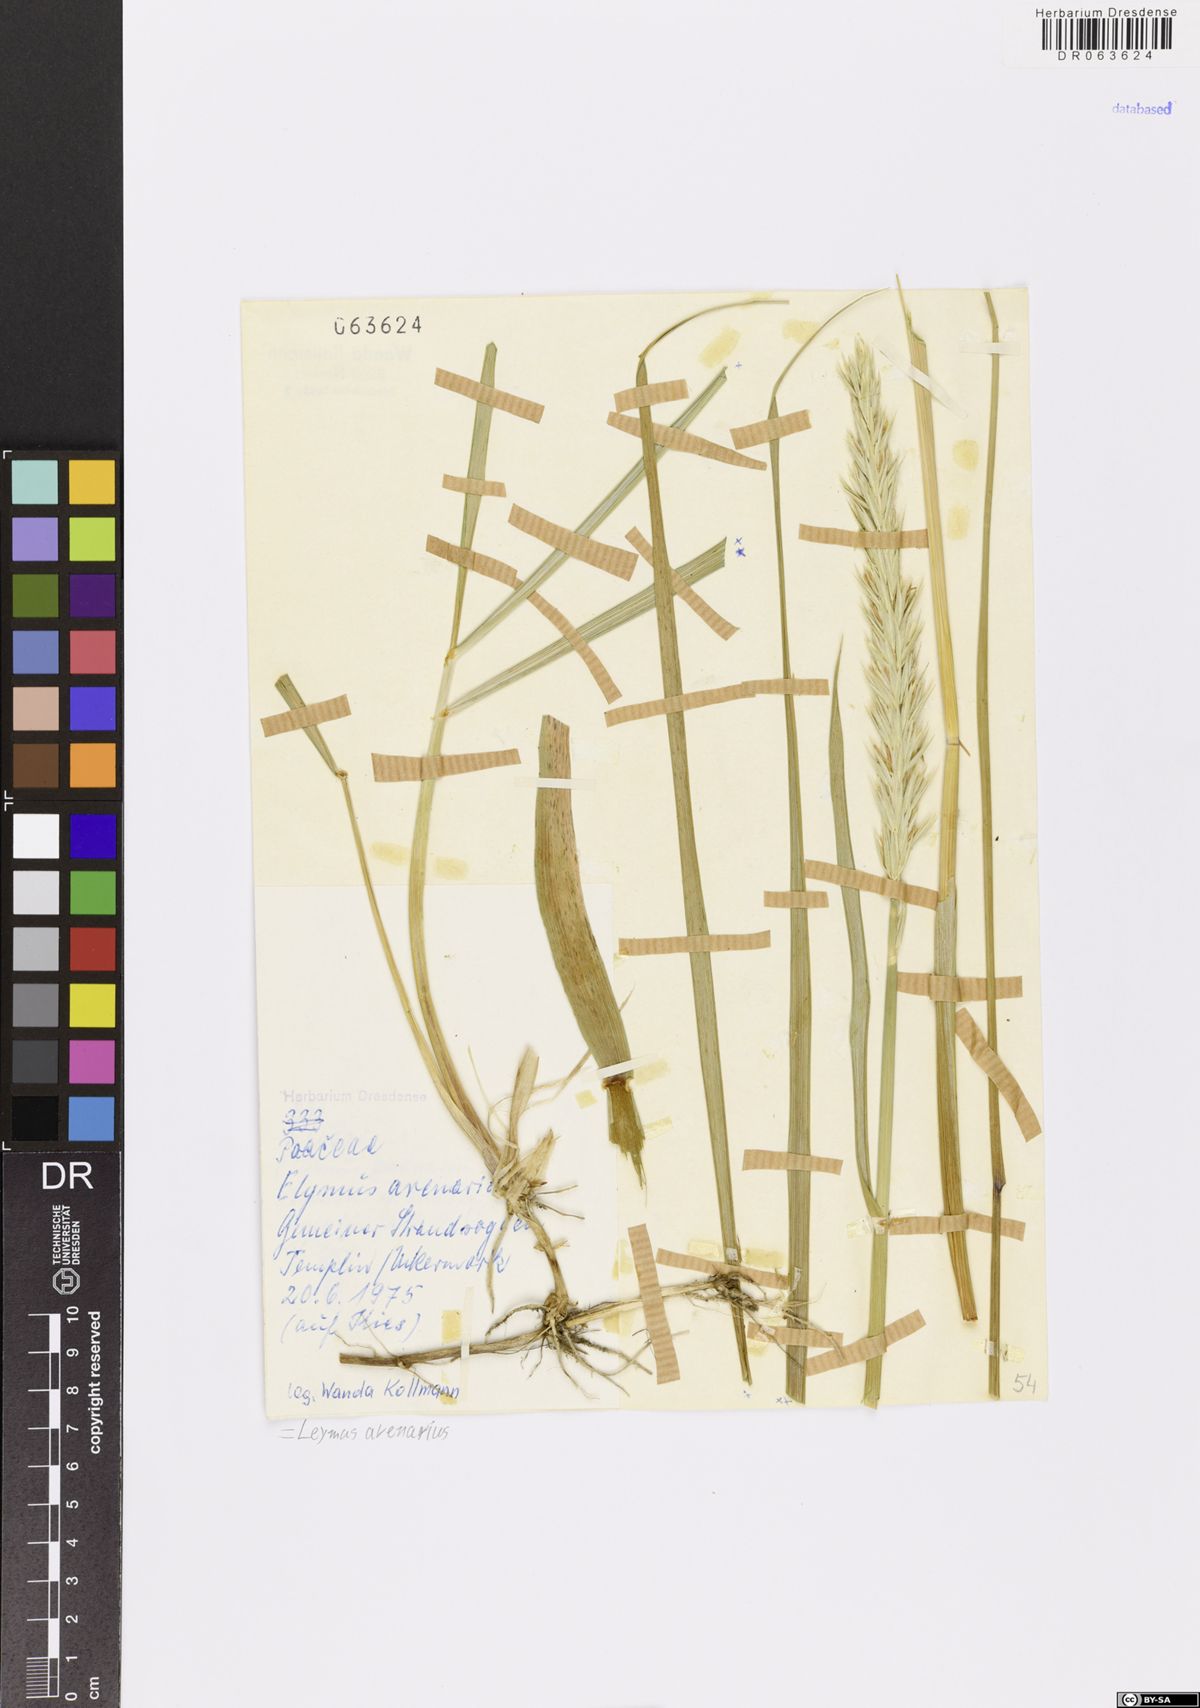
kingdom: Plantae
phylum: Tracheophyta
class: Liliopsida
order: Poales
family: Poaceae
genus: Leymus
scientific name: Leymus arenarius
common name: Lyme-grass
